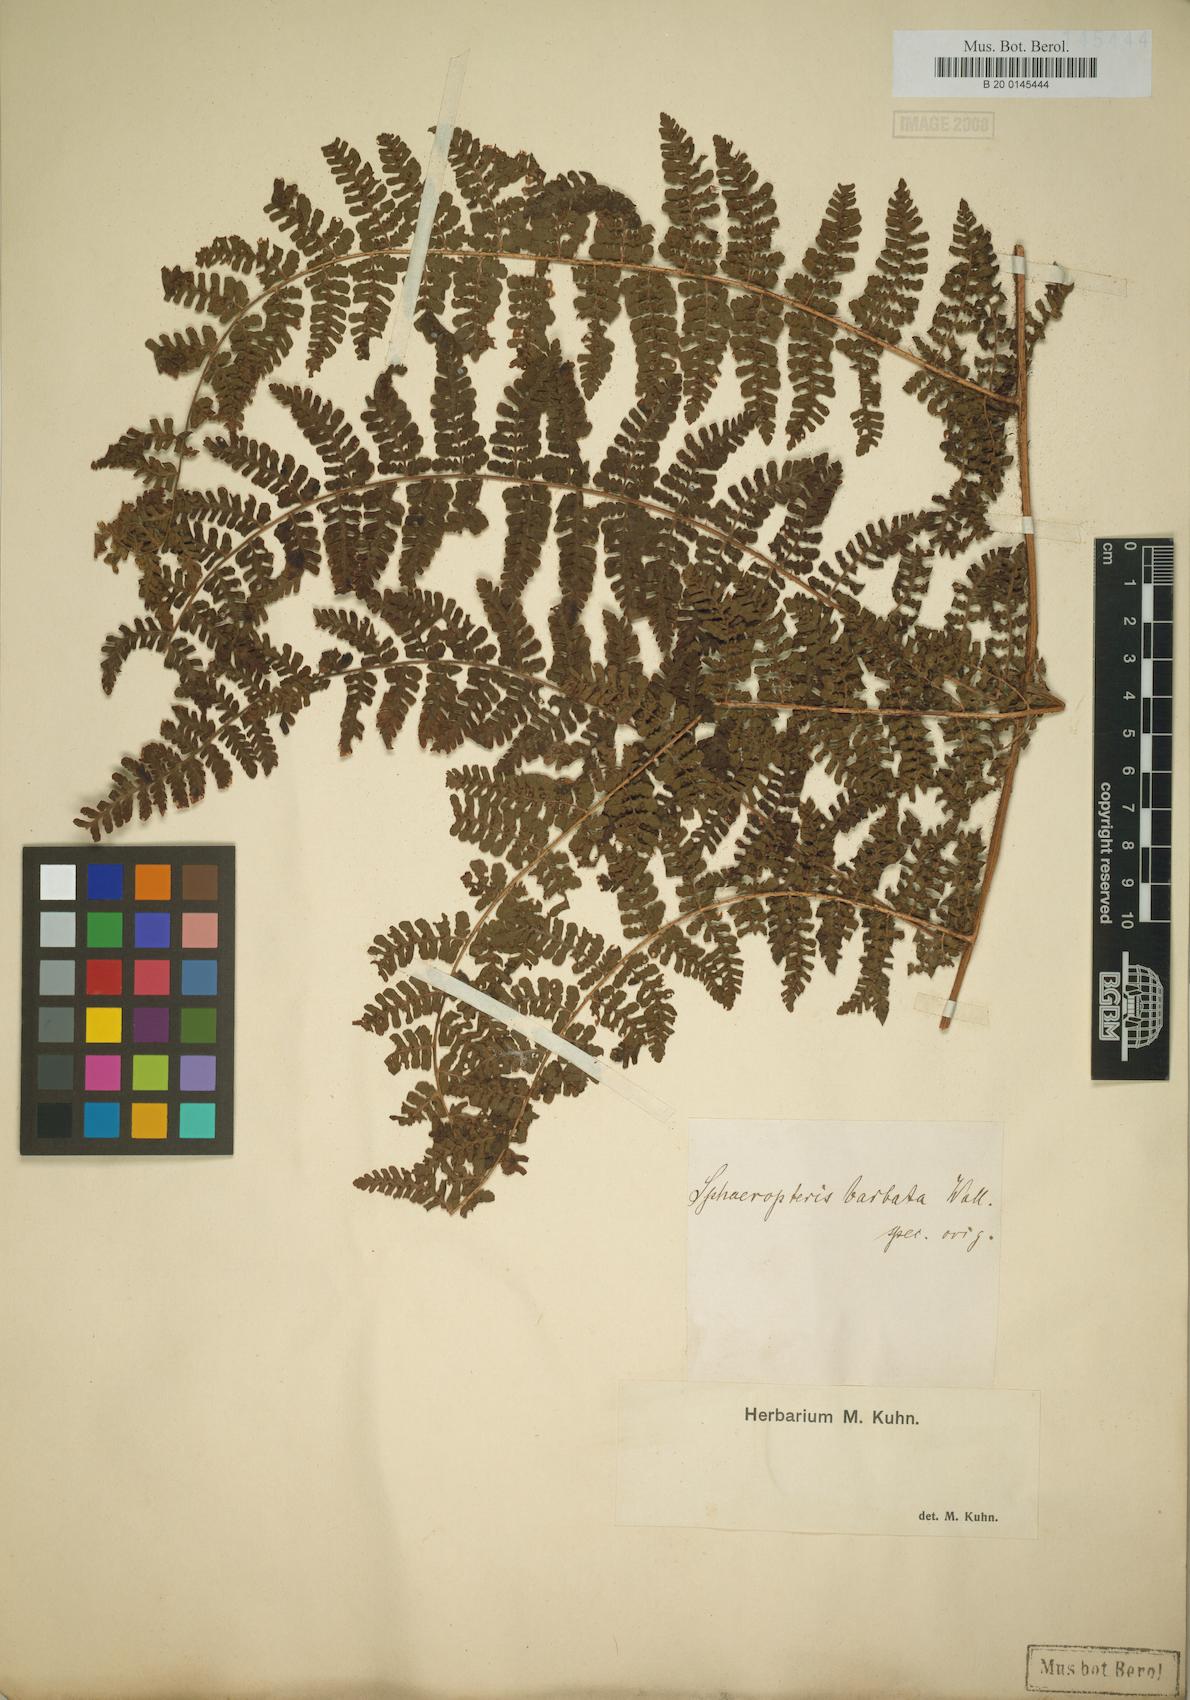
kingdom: Plantae
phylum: Tracheophyta
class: Polypodiopsida
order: Polypodiales
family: Dryopteridaceae
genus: Dryopteris
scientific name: Dryopteris peranema
